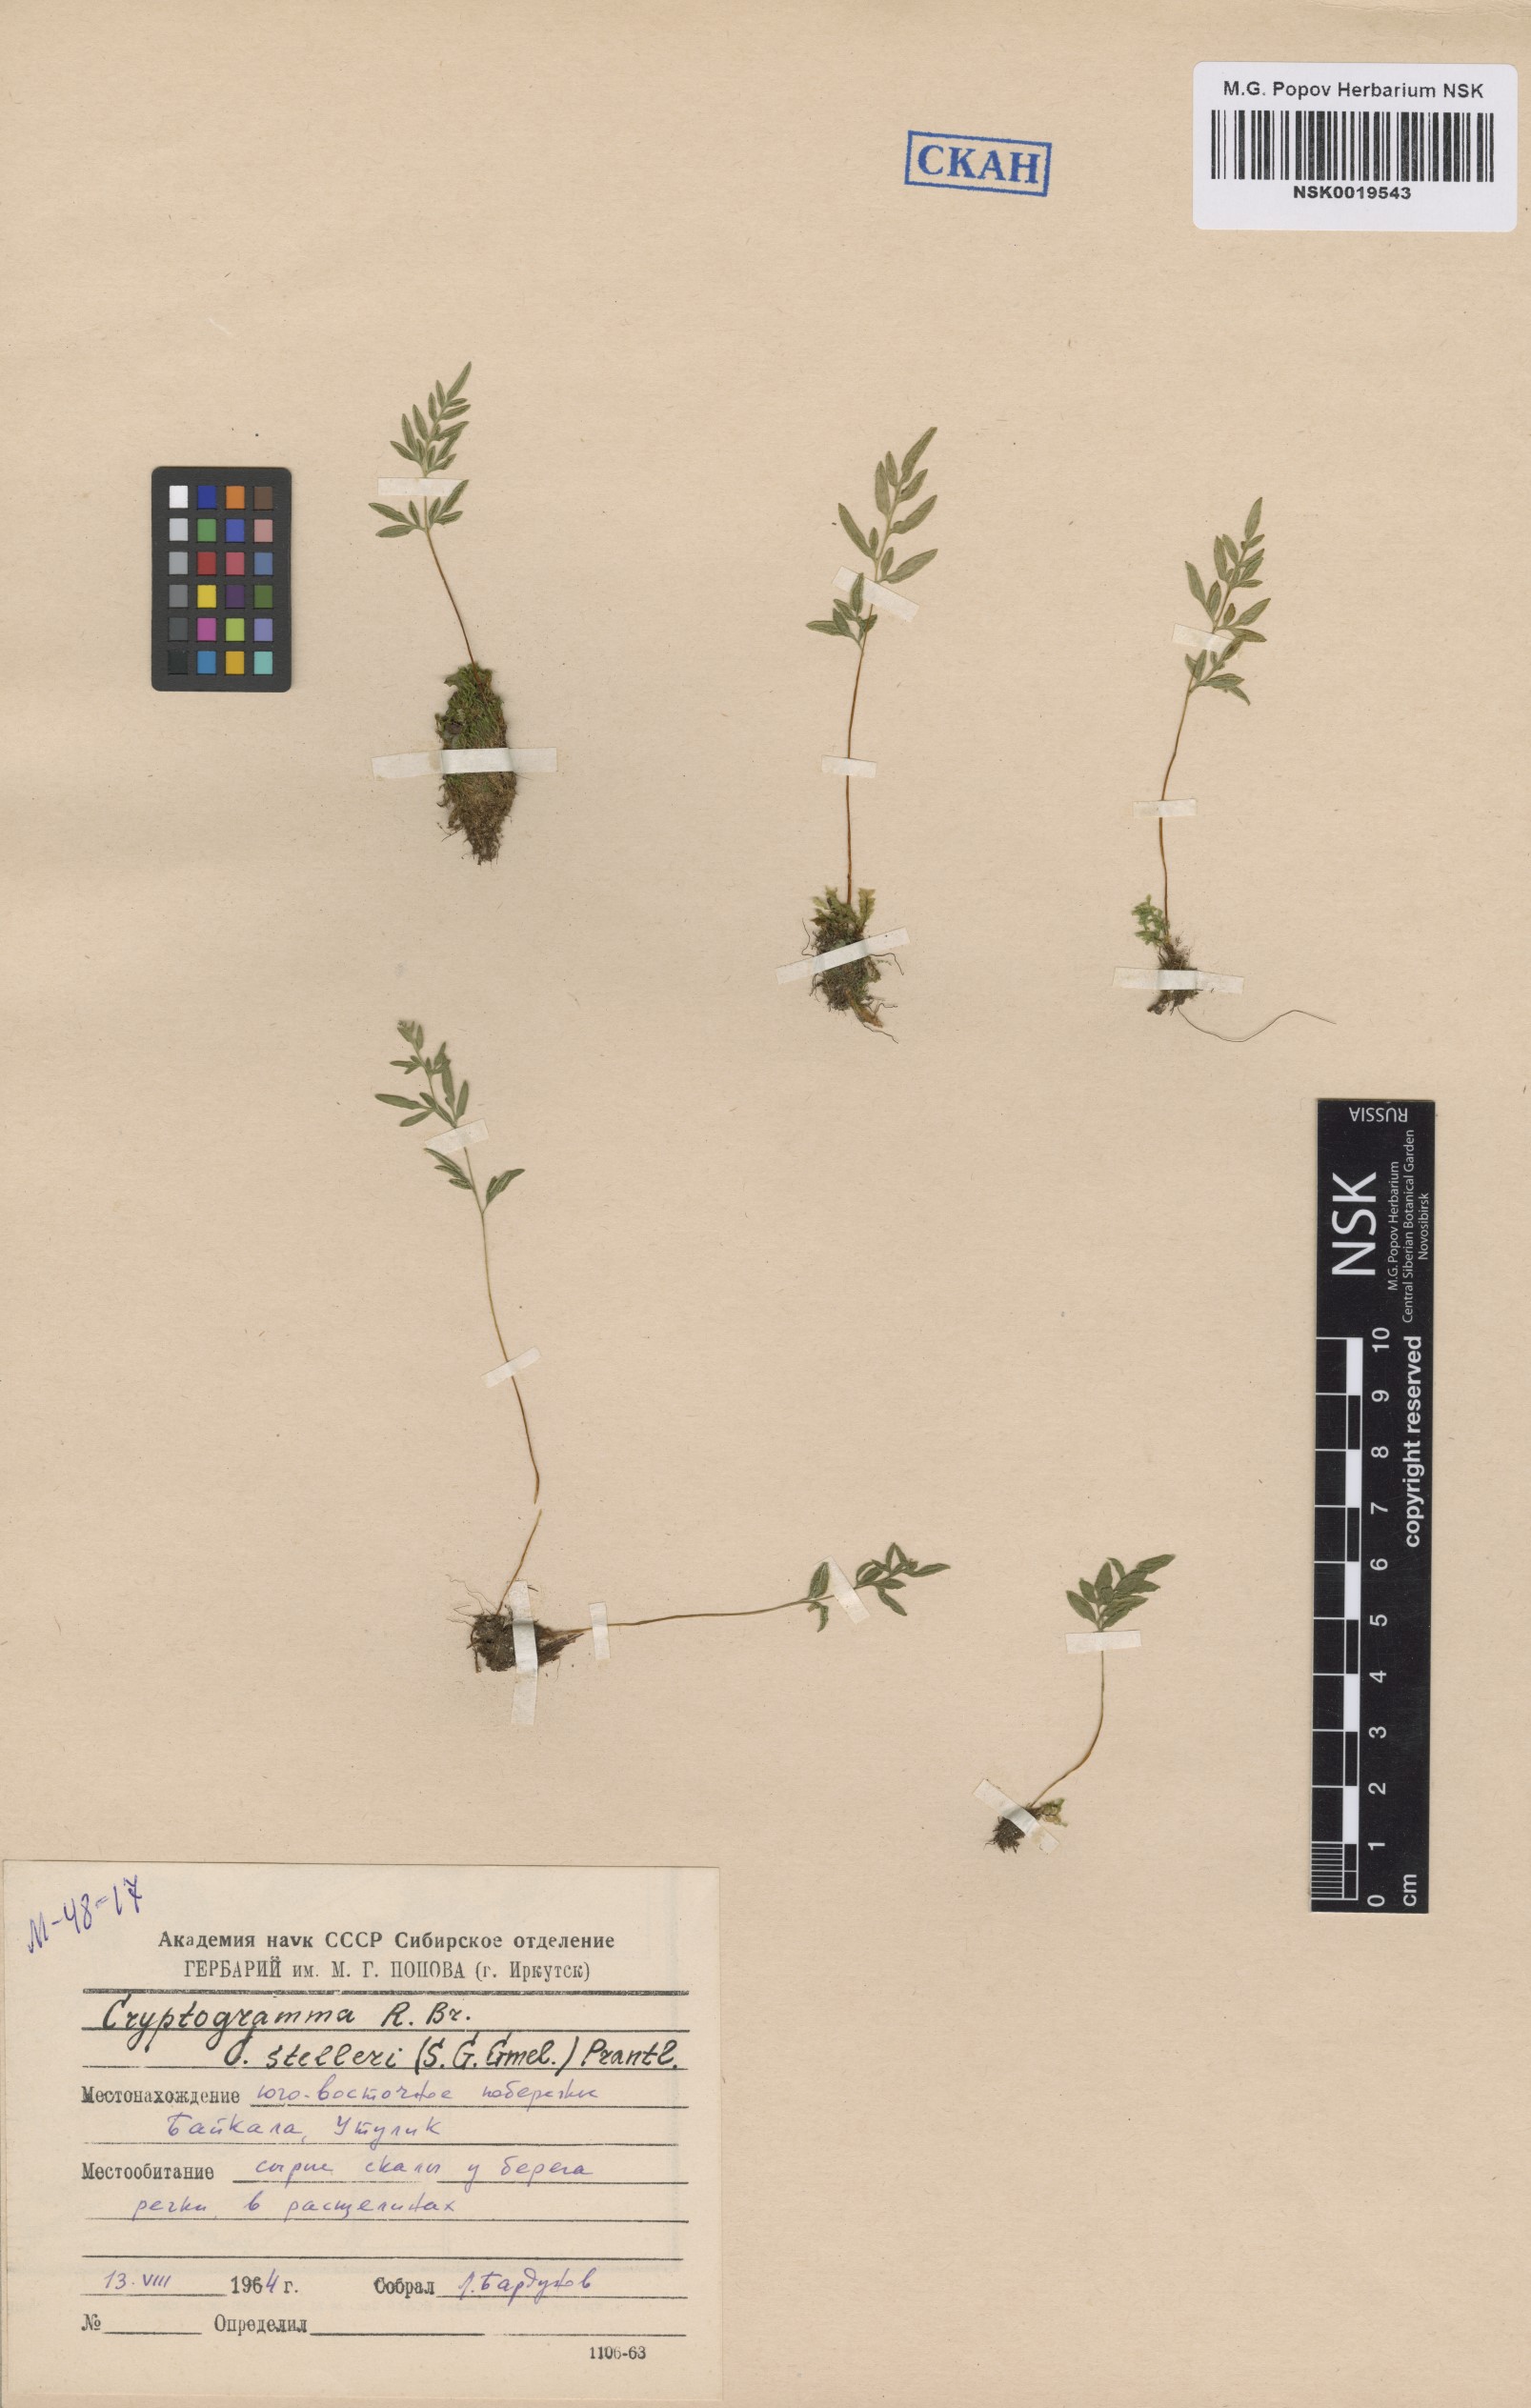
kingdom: Plantae
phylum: Tracheophyta
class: Polypodiopsida
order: Polypodiales
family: Pteridaceae
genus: Cryptogramma
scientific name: Cryptogramma stelleri
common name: Cliff-brake
